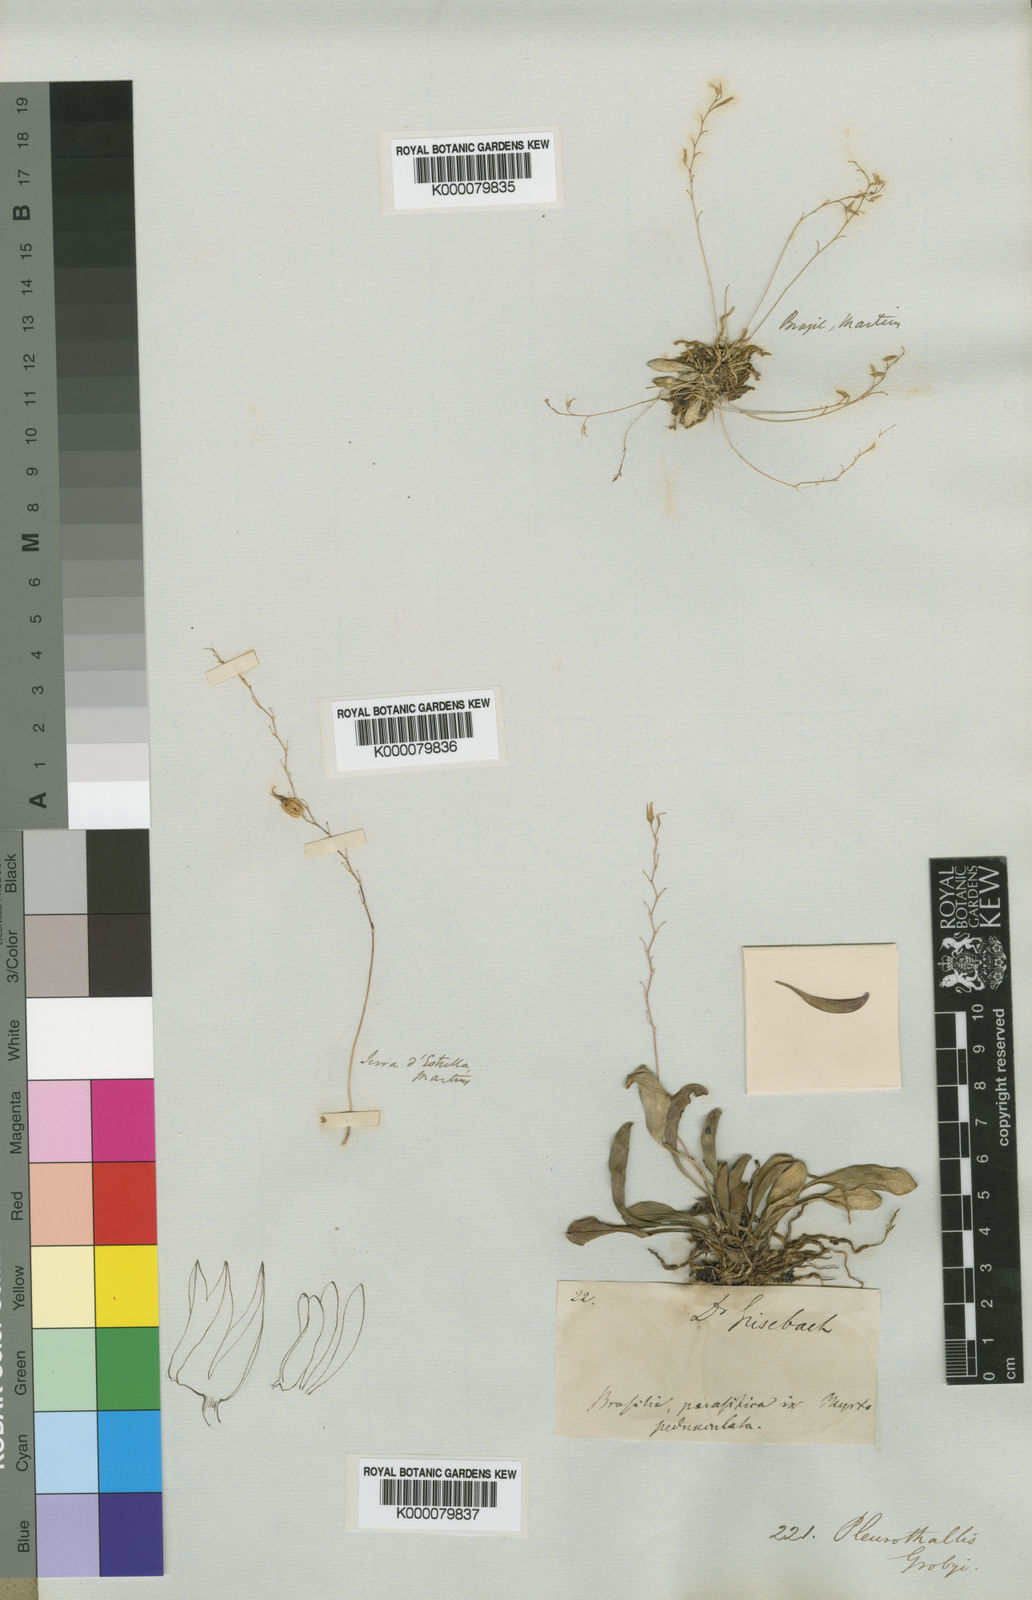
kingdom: Plantae
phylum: Tracheophyta
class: Liliopsida
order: Asparagales
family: Orchidaceae
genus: Specklinia
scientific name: Specklinia grobyi
